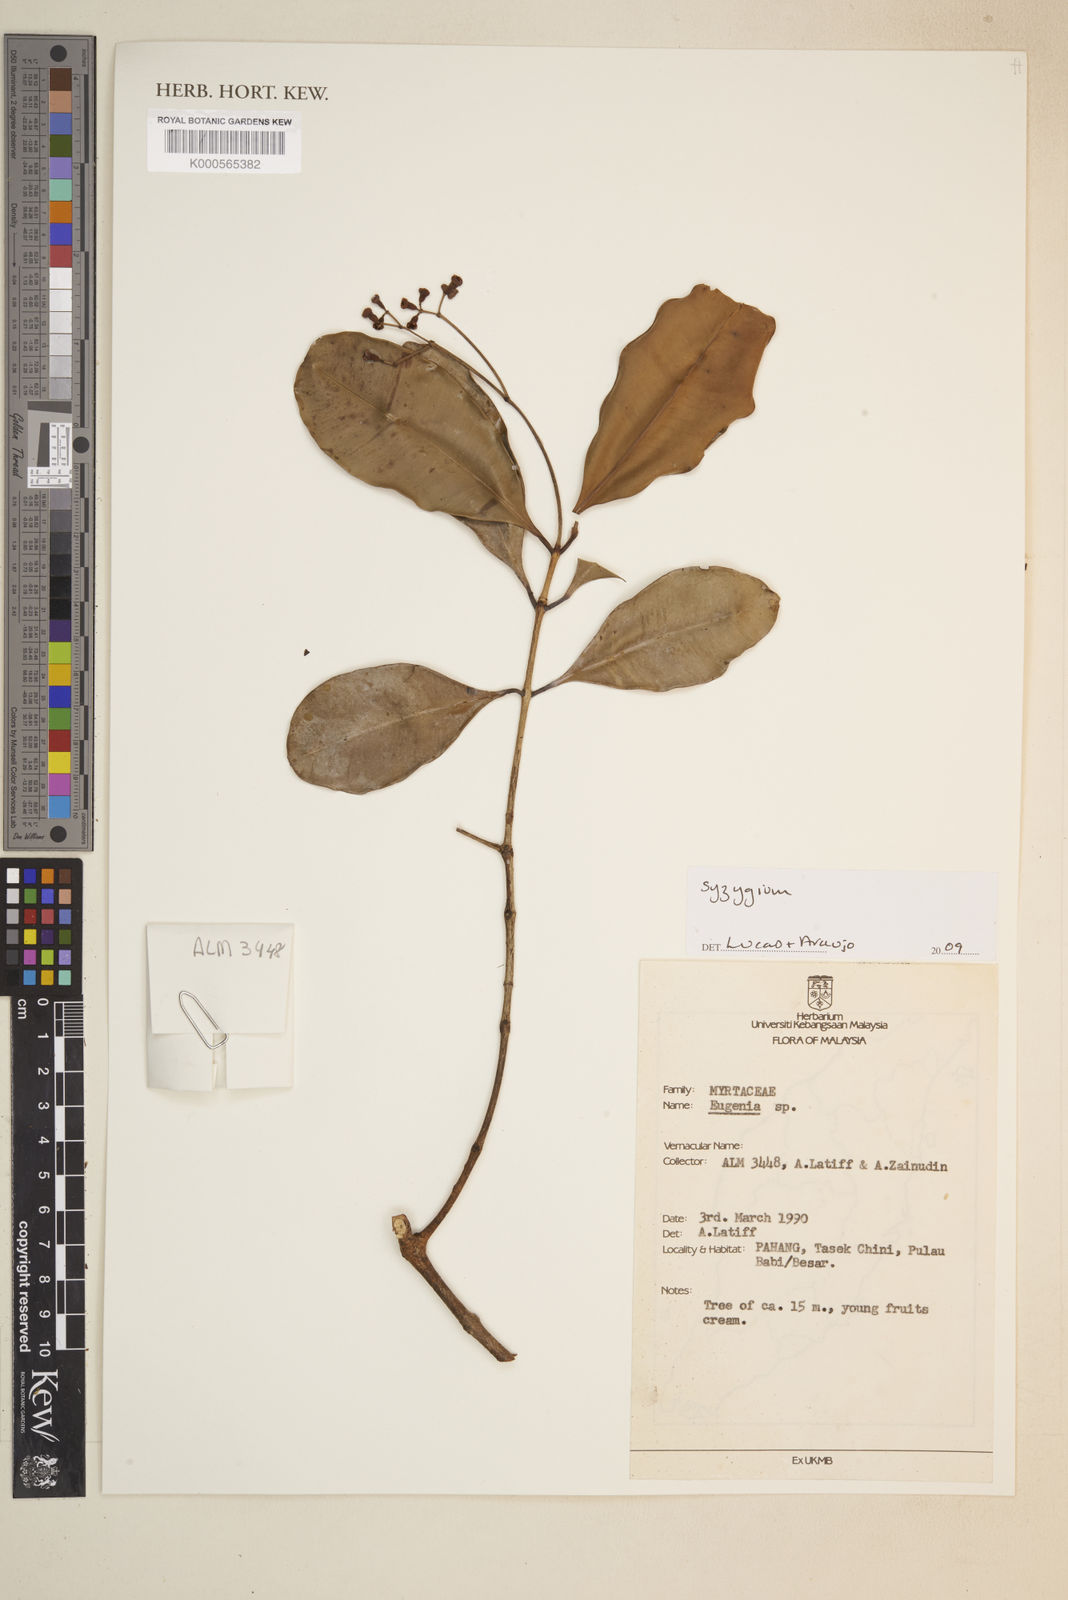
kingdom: Plantae
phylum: Tracheophyta
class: Magnoliopsida
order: Myrtales
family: Myrtaceae
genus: Syzygium
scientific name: Syzygium
